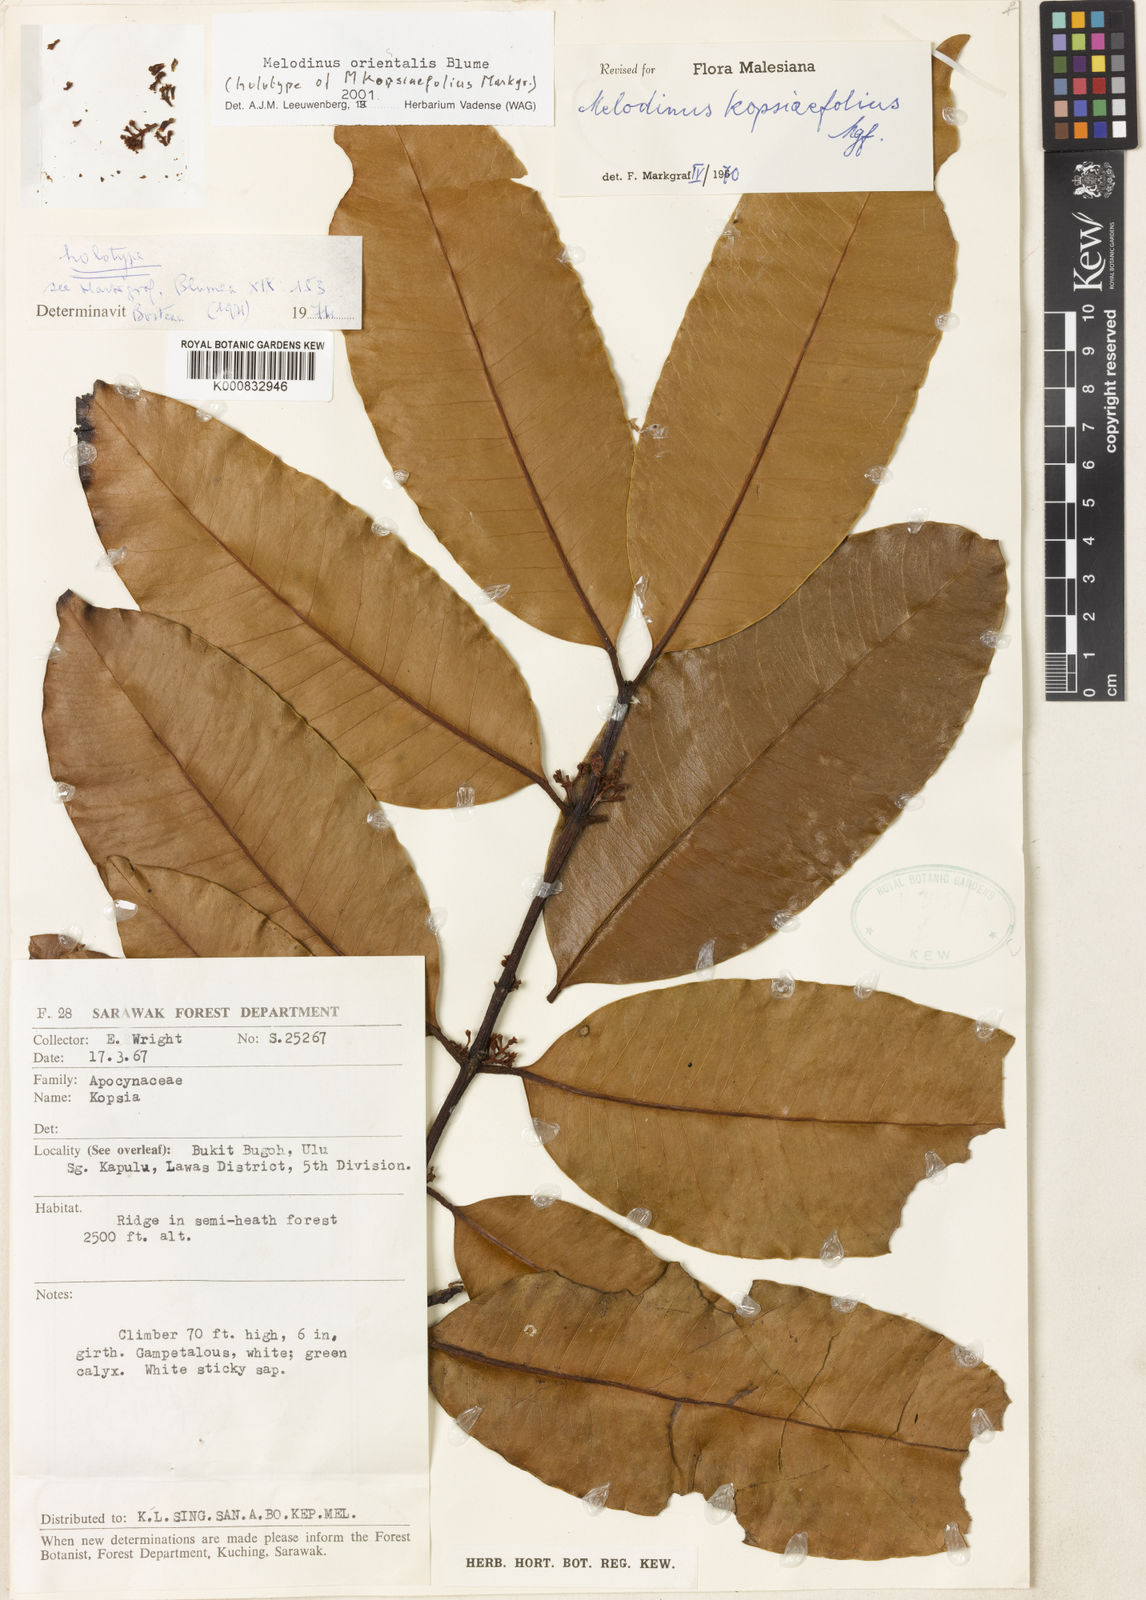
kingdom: Plantae
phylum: Tracheophyta
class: Magnoliopsida
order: Gentianales
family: Apocynaceae
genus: Melodinus
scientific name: Melodinus orientalis
